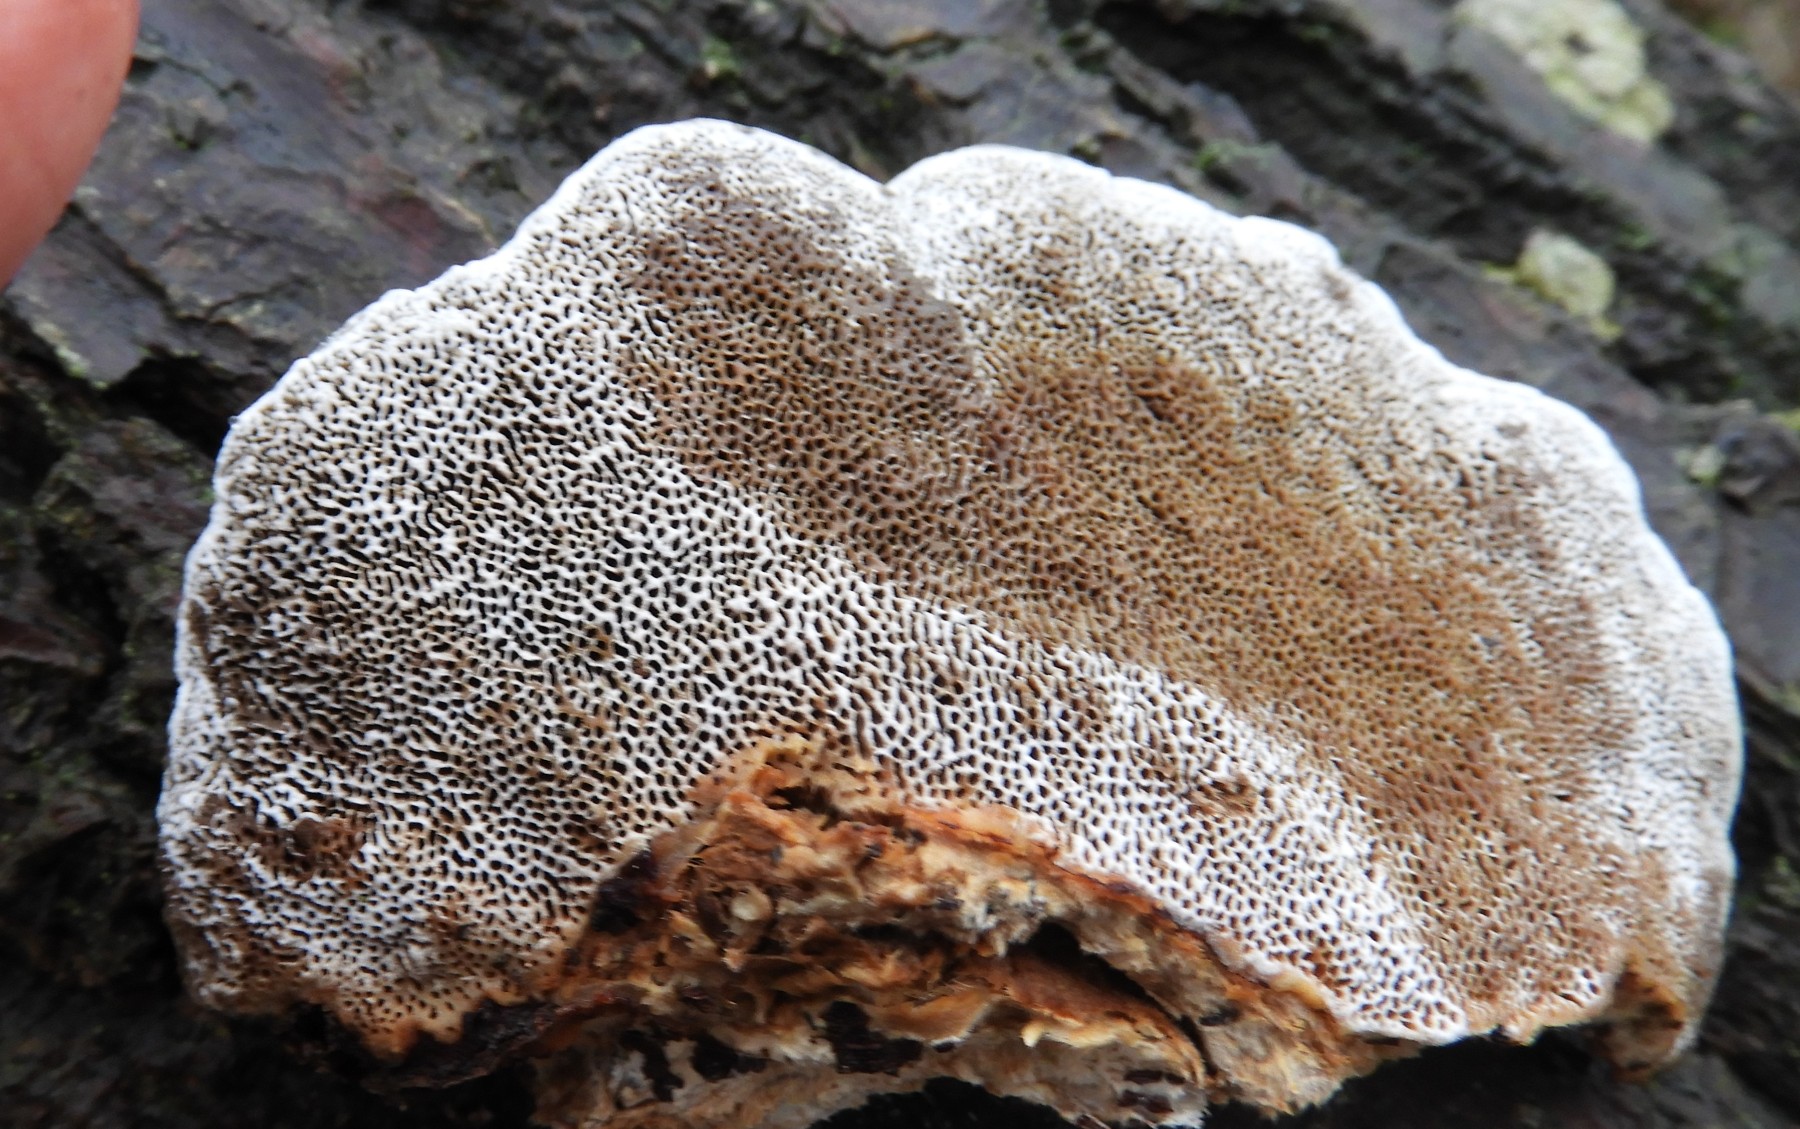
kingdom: Fungi
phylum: Basidiomycota
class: Agaricomycetes
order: Polyporales
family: Polyporaceae
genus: Daedaleopsis
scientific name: Daedaleopsis confragosa
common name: rødmende læderporesvamp
